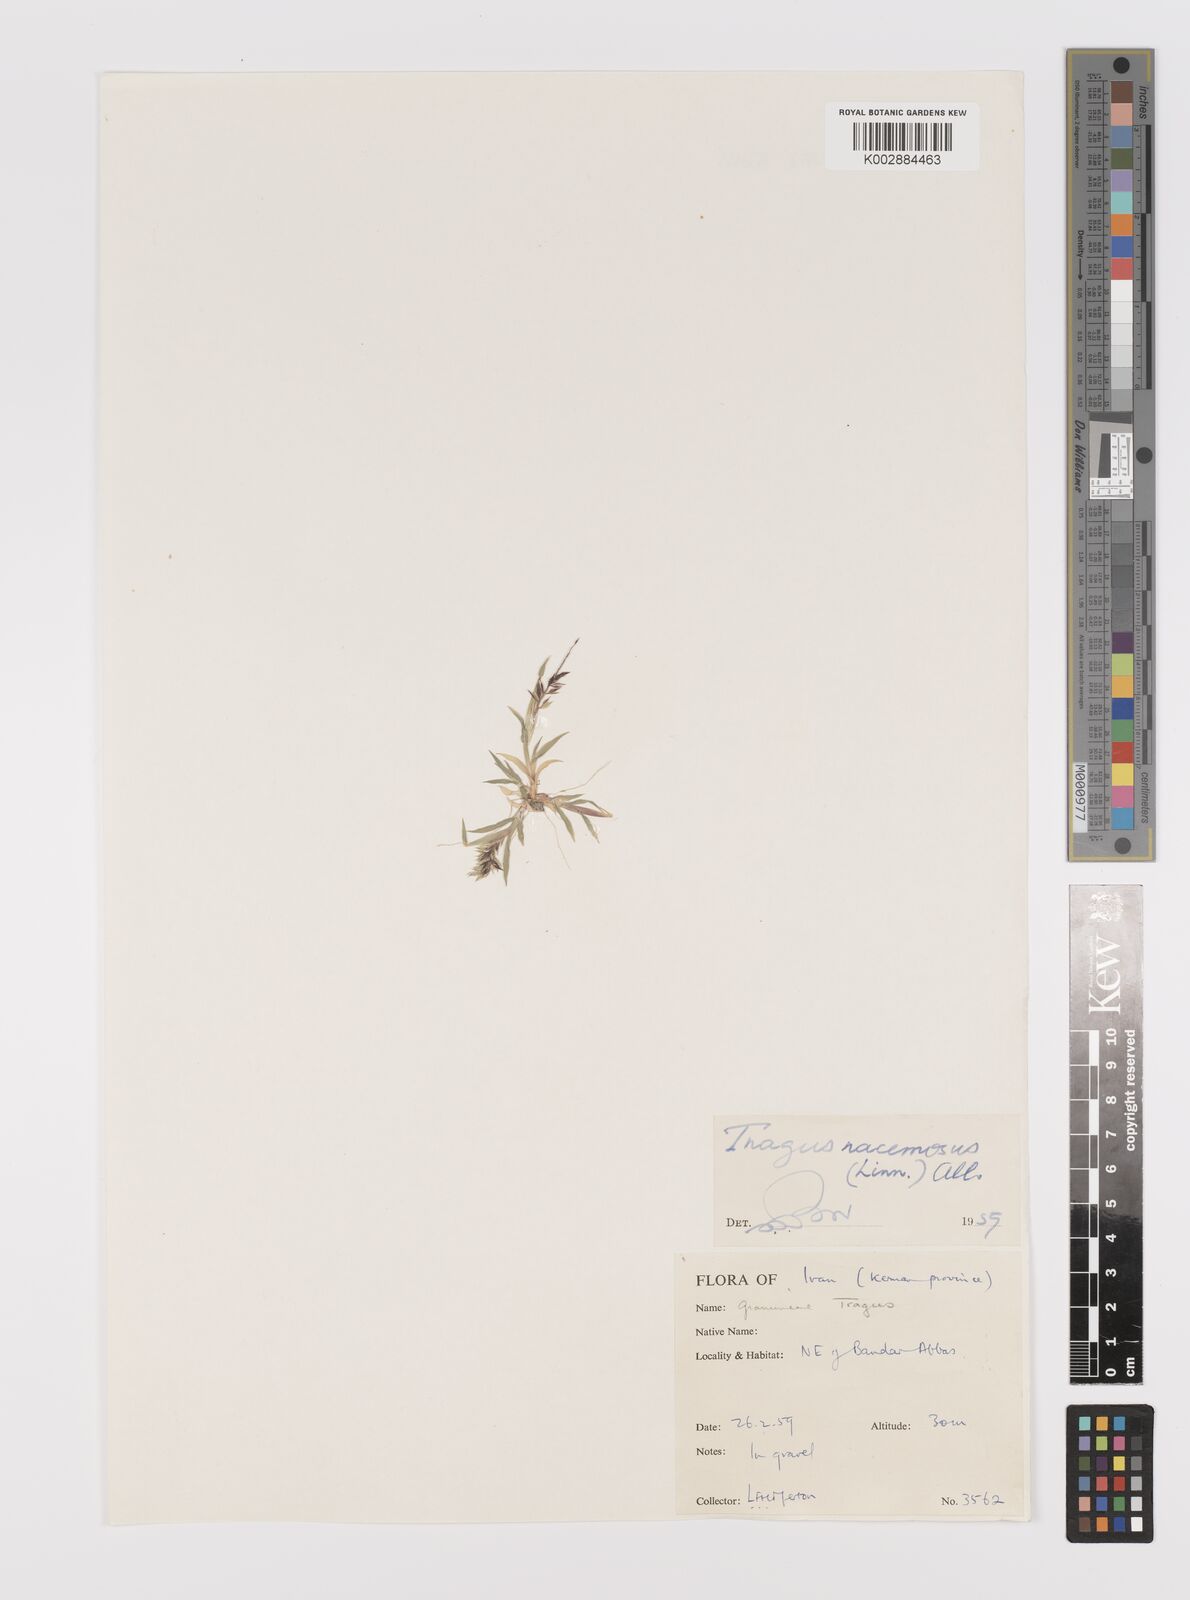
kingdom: Plantae
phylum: Tracheophyta
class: Liliopsida
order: Poales
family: Poaceae
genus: Tragus
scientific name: Tragus racemosus
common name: European bur-grass
